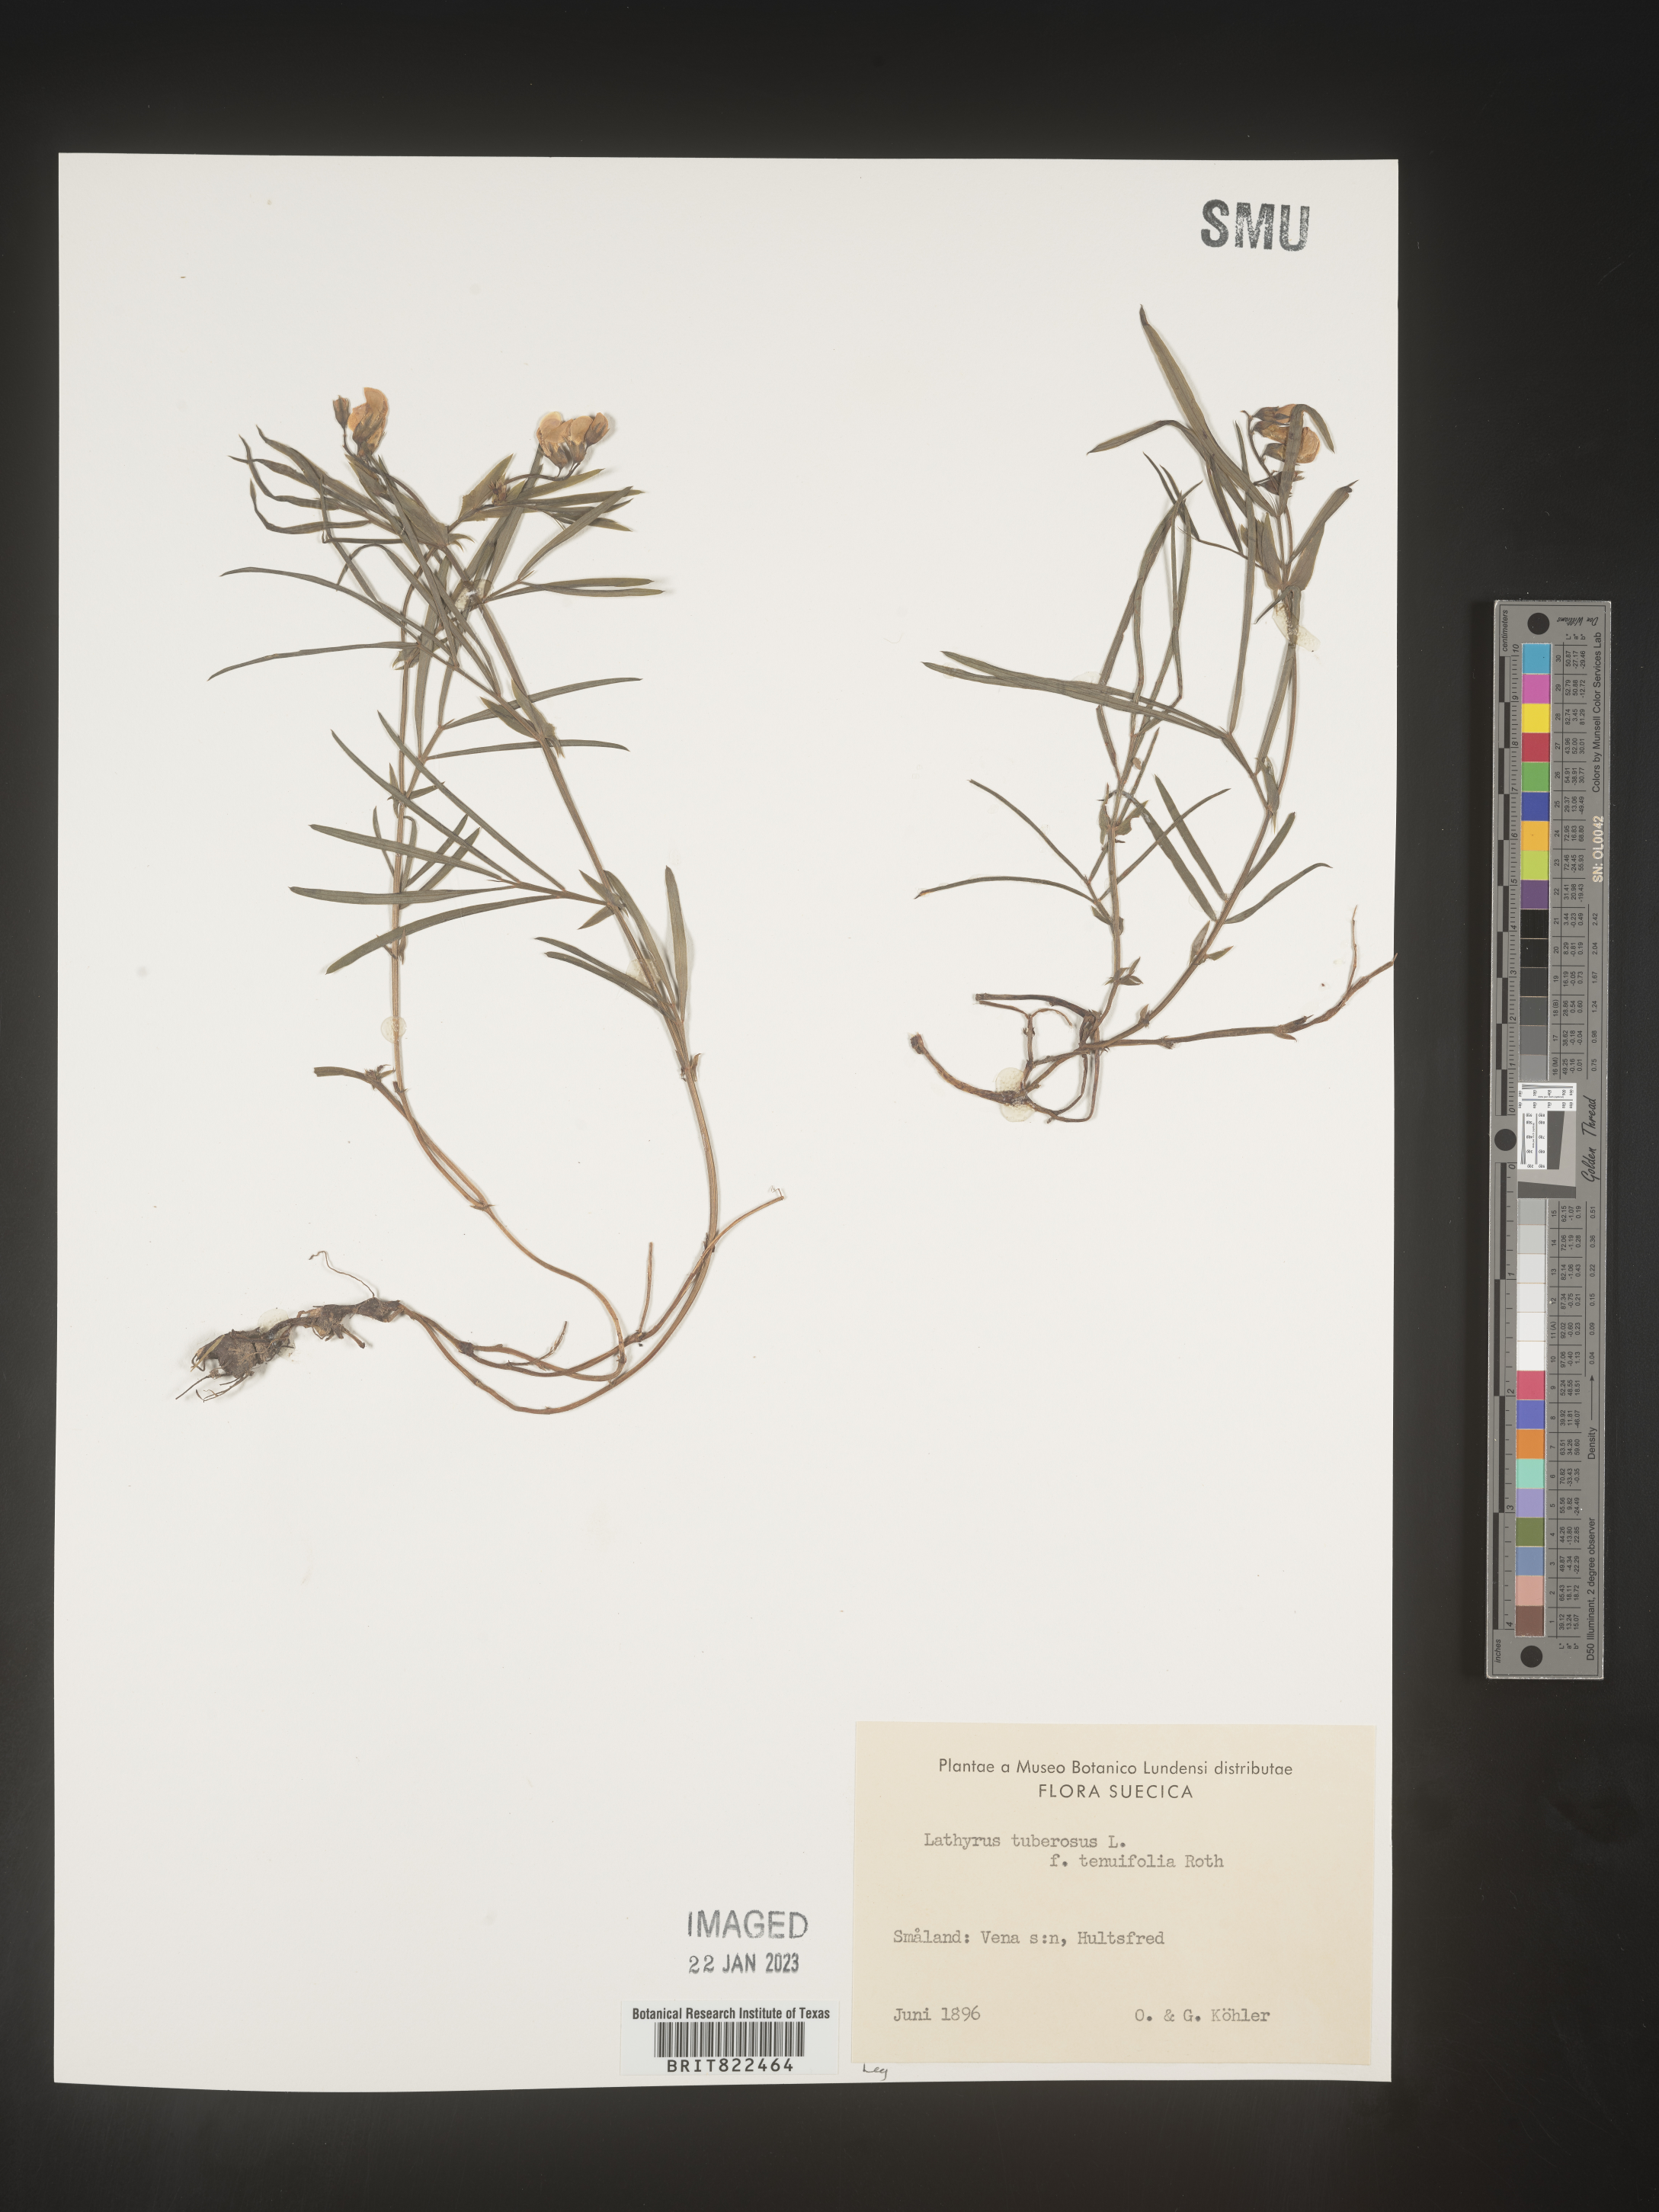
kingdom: Plantae
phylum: Tracheophyta
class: Magnoliopsida
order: Fabales
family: Fabaceae
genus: Lathyrus
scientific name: Lathyrus
